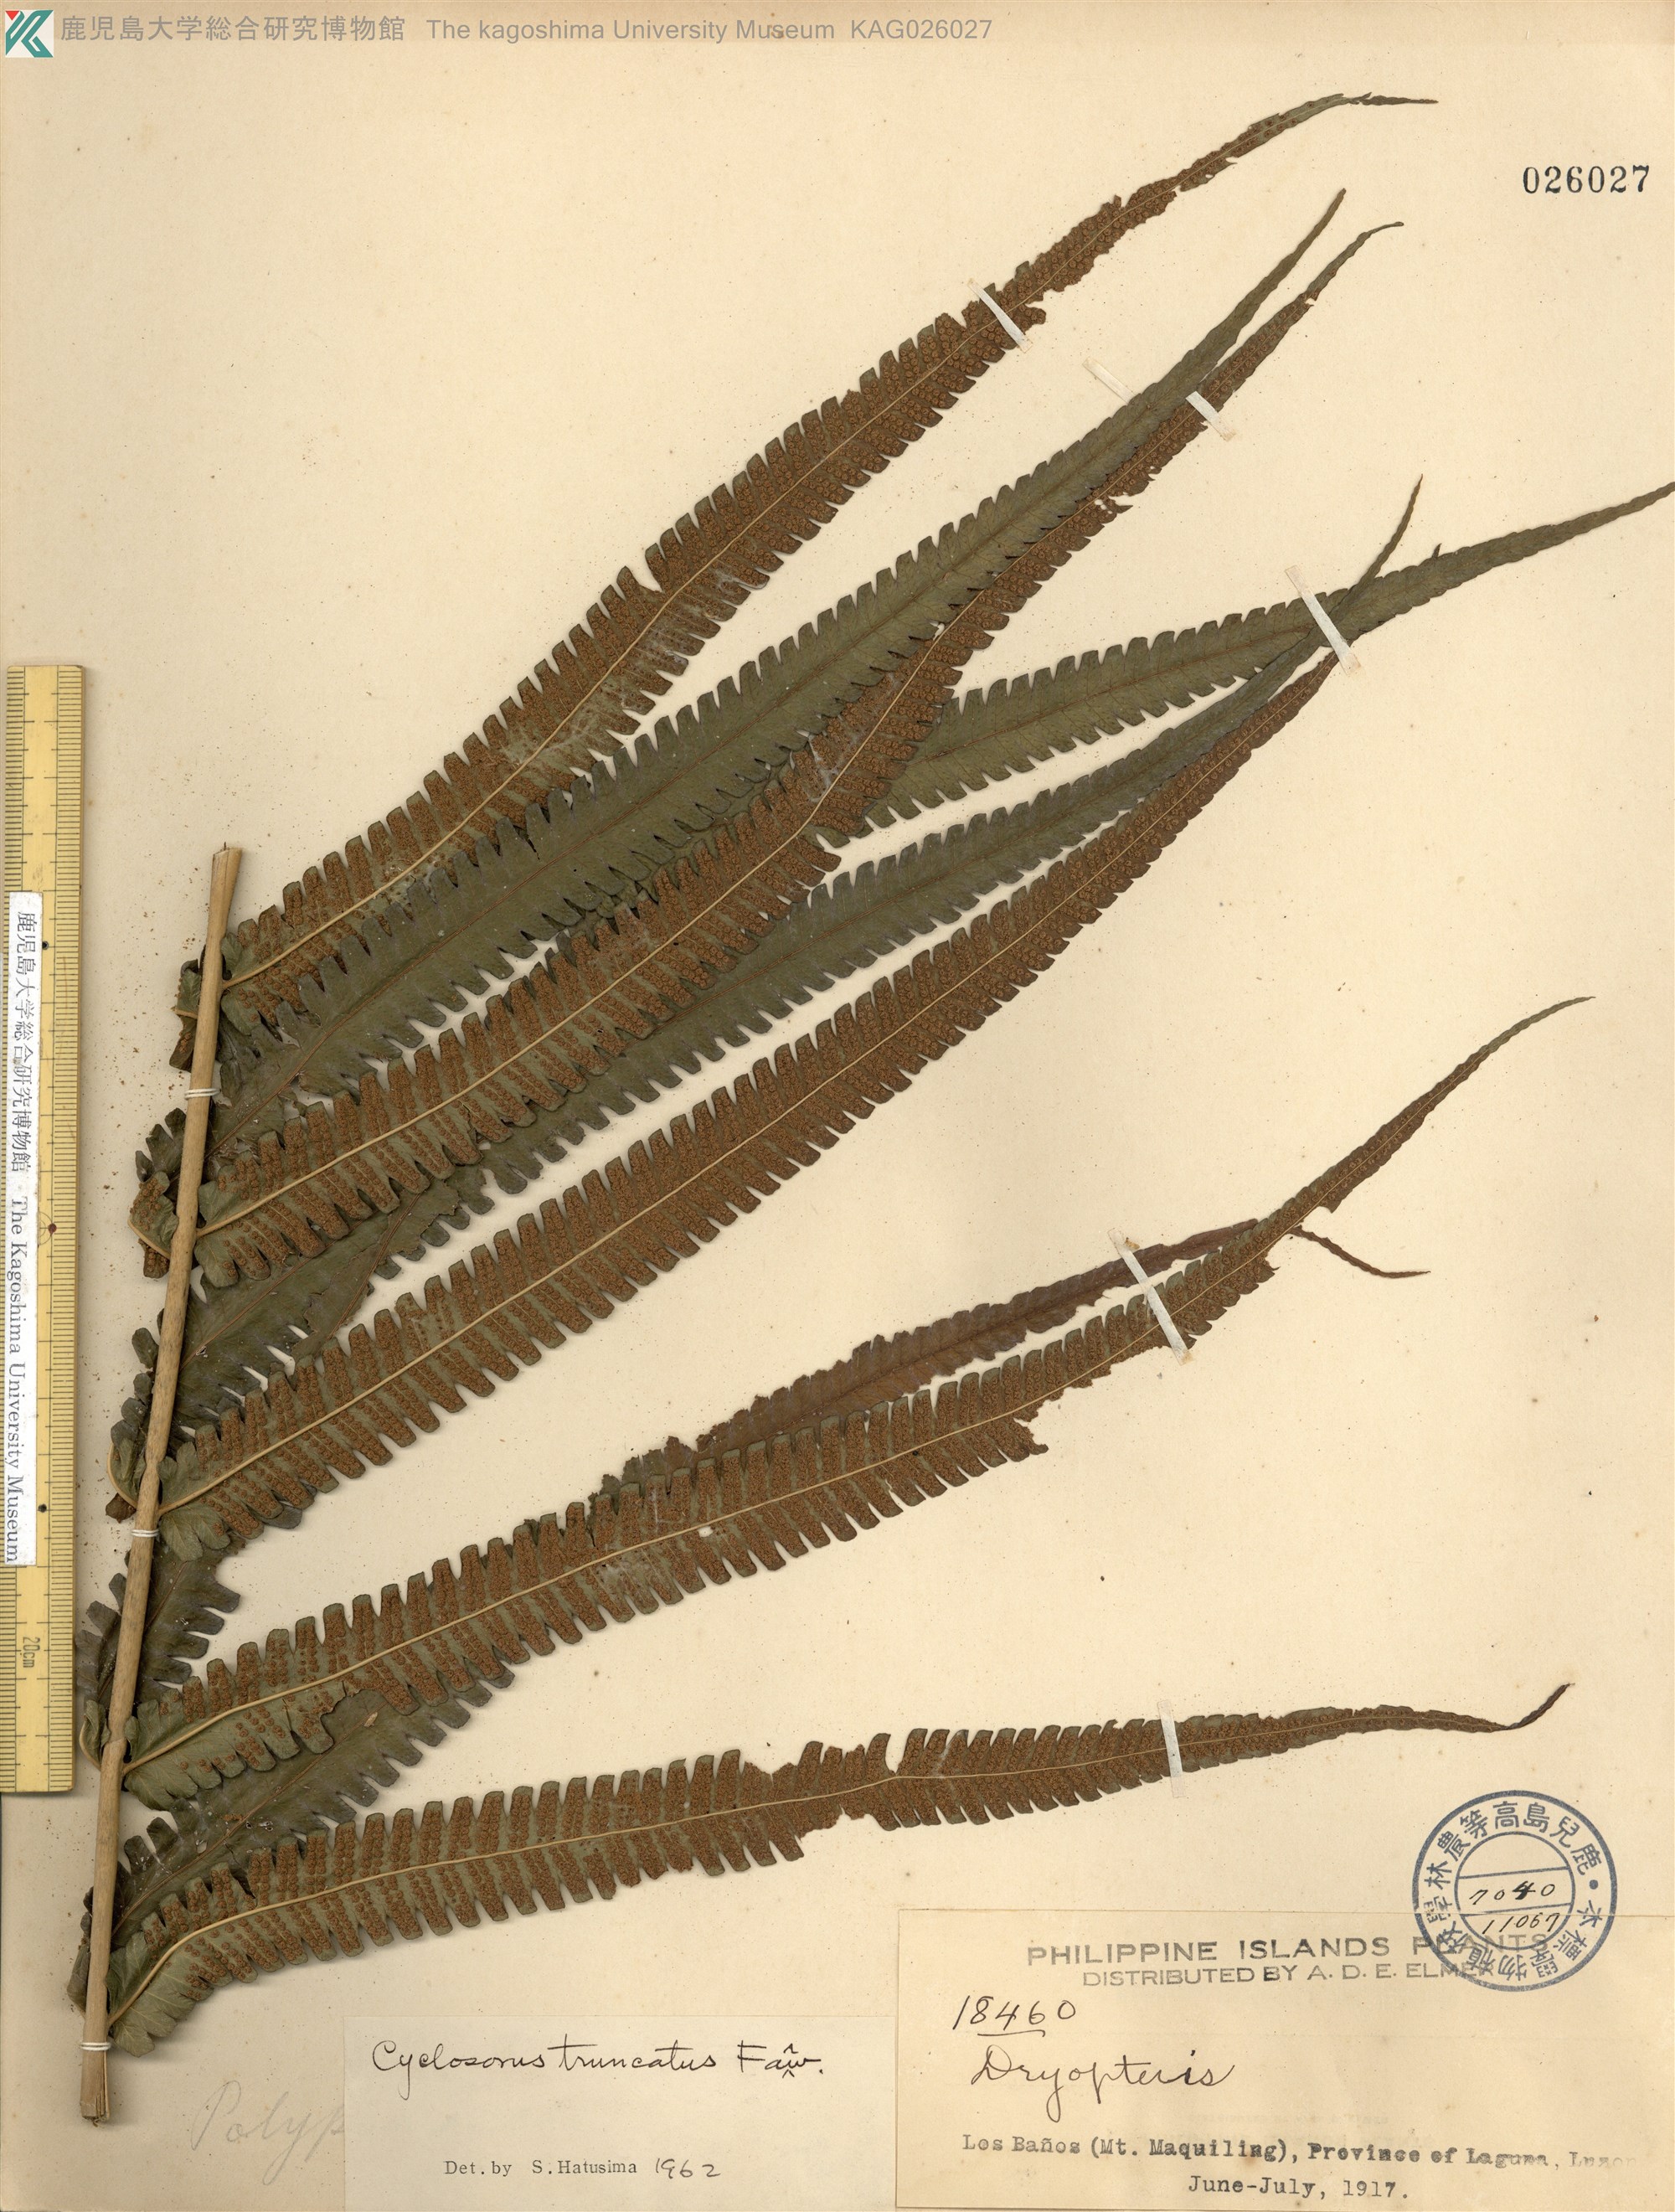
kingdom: Plantae
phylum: Tracheophyta
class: Polypodiopsida
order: Polypodiales
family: Thelypteridaceae
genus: Reholttumia
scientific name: Reholttumia truncata
